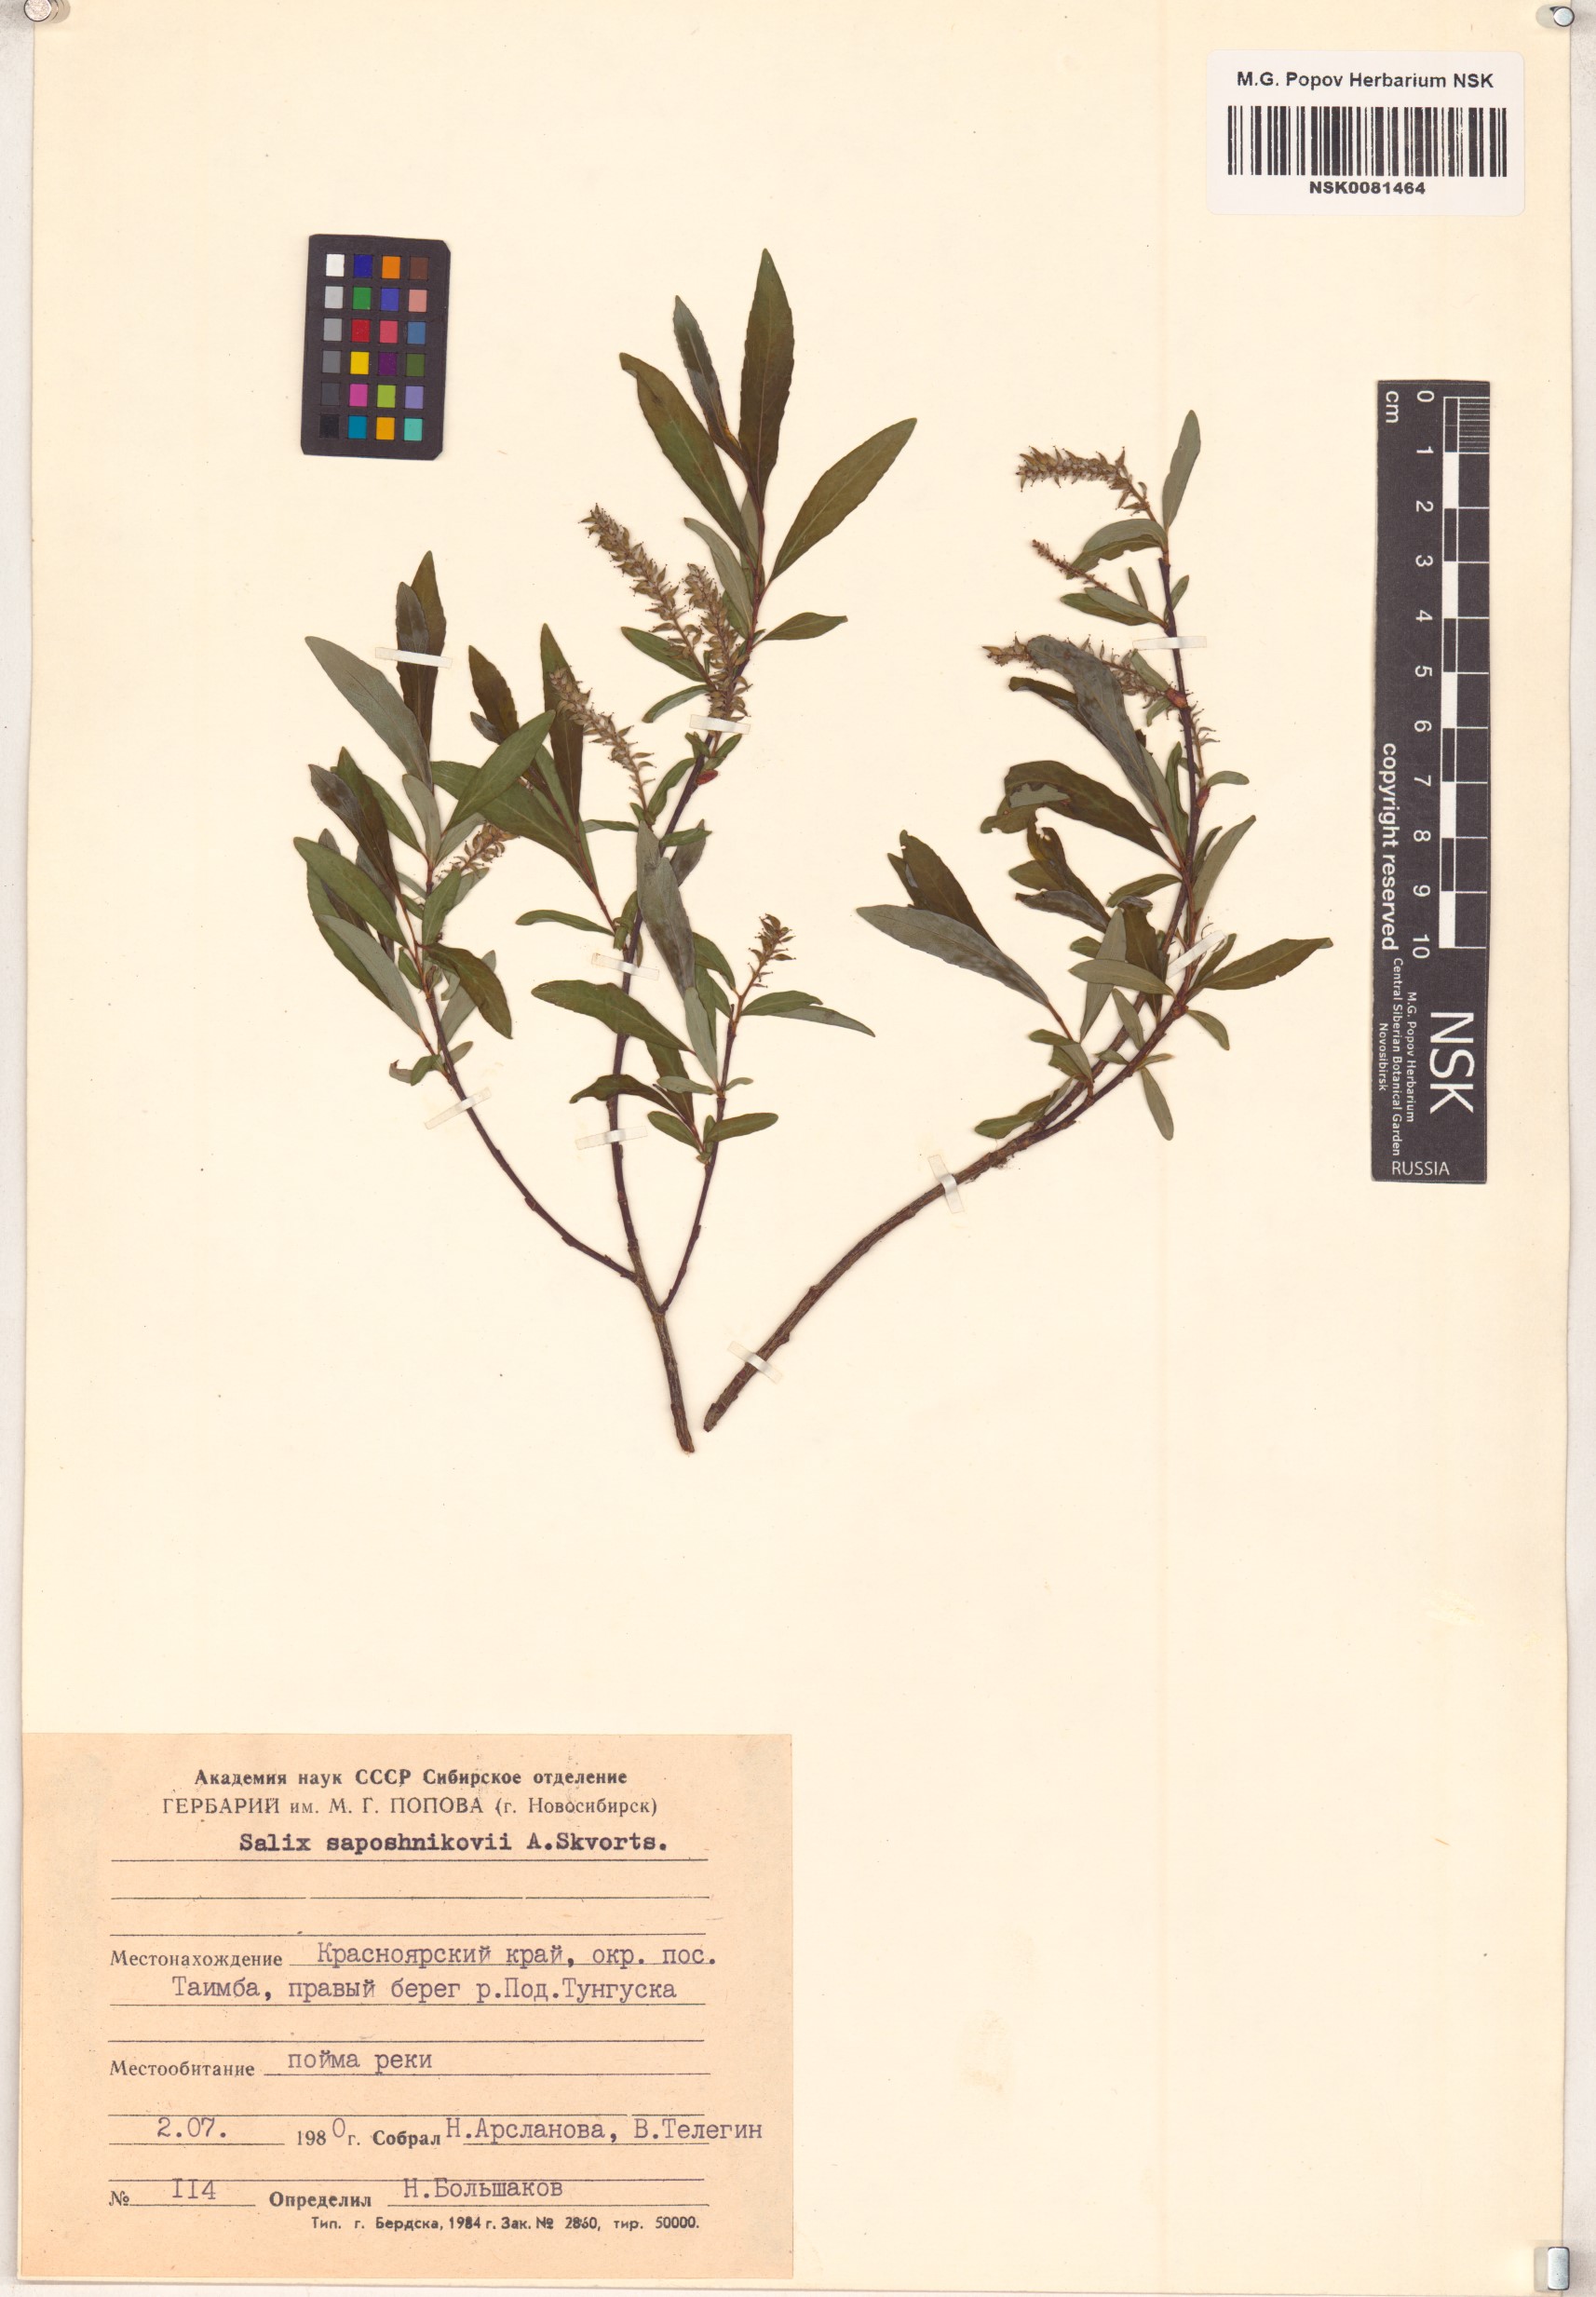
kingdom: Plantae
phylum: Tracheophyta
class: Magnoliopsida
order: Malpighiales
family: Salicaceae
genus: Salix
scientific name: Salix saposhnikovii
